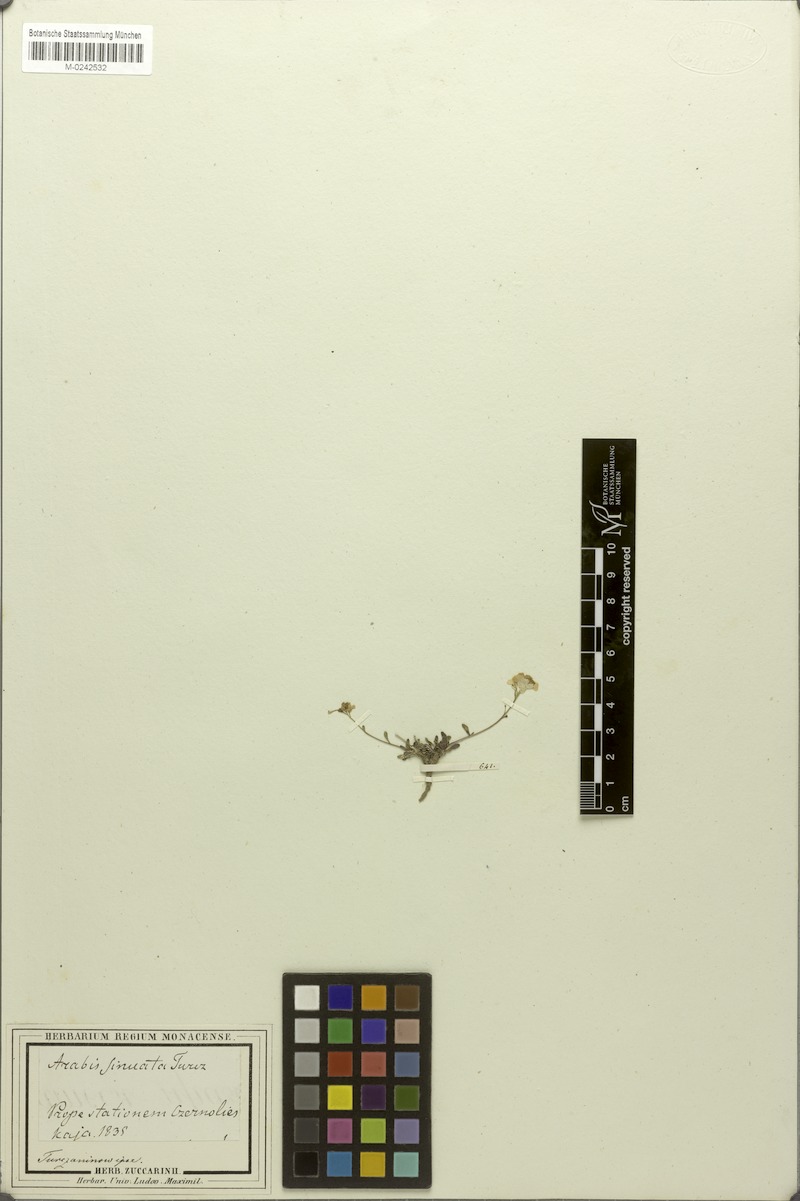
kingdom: Plantae
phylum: Tracheophyta
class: Magnoliopsida
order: Brassicales
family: Brassicaceae
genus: Braya
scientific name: Braya humilis
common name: Alpine northern rockcress
